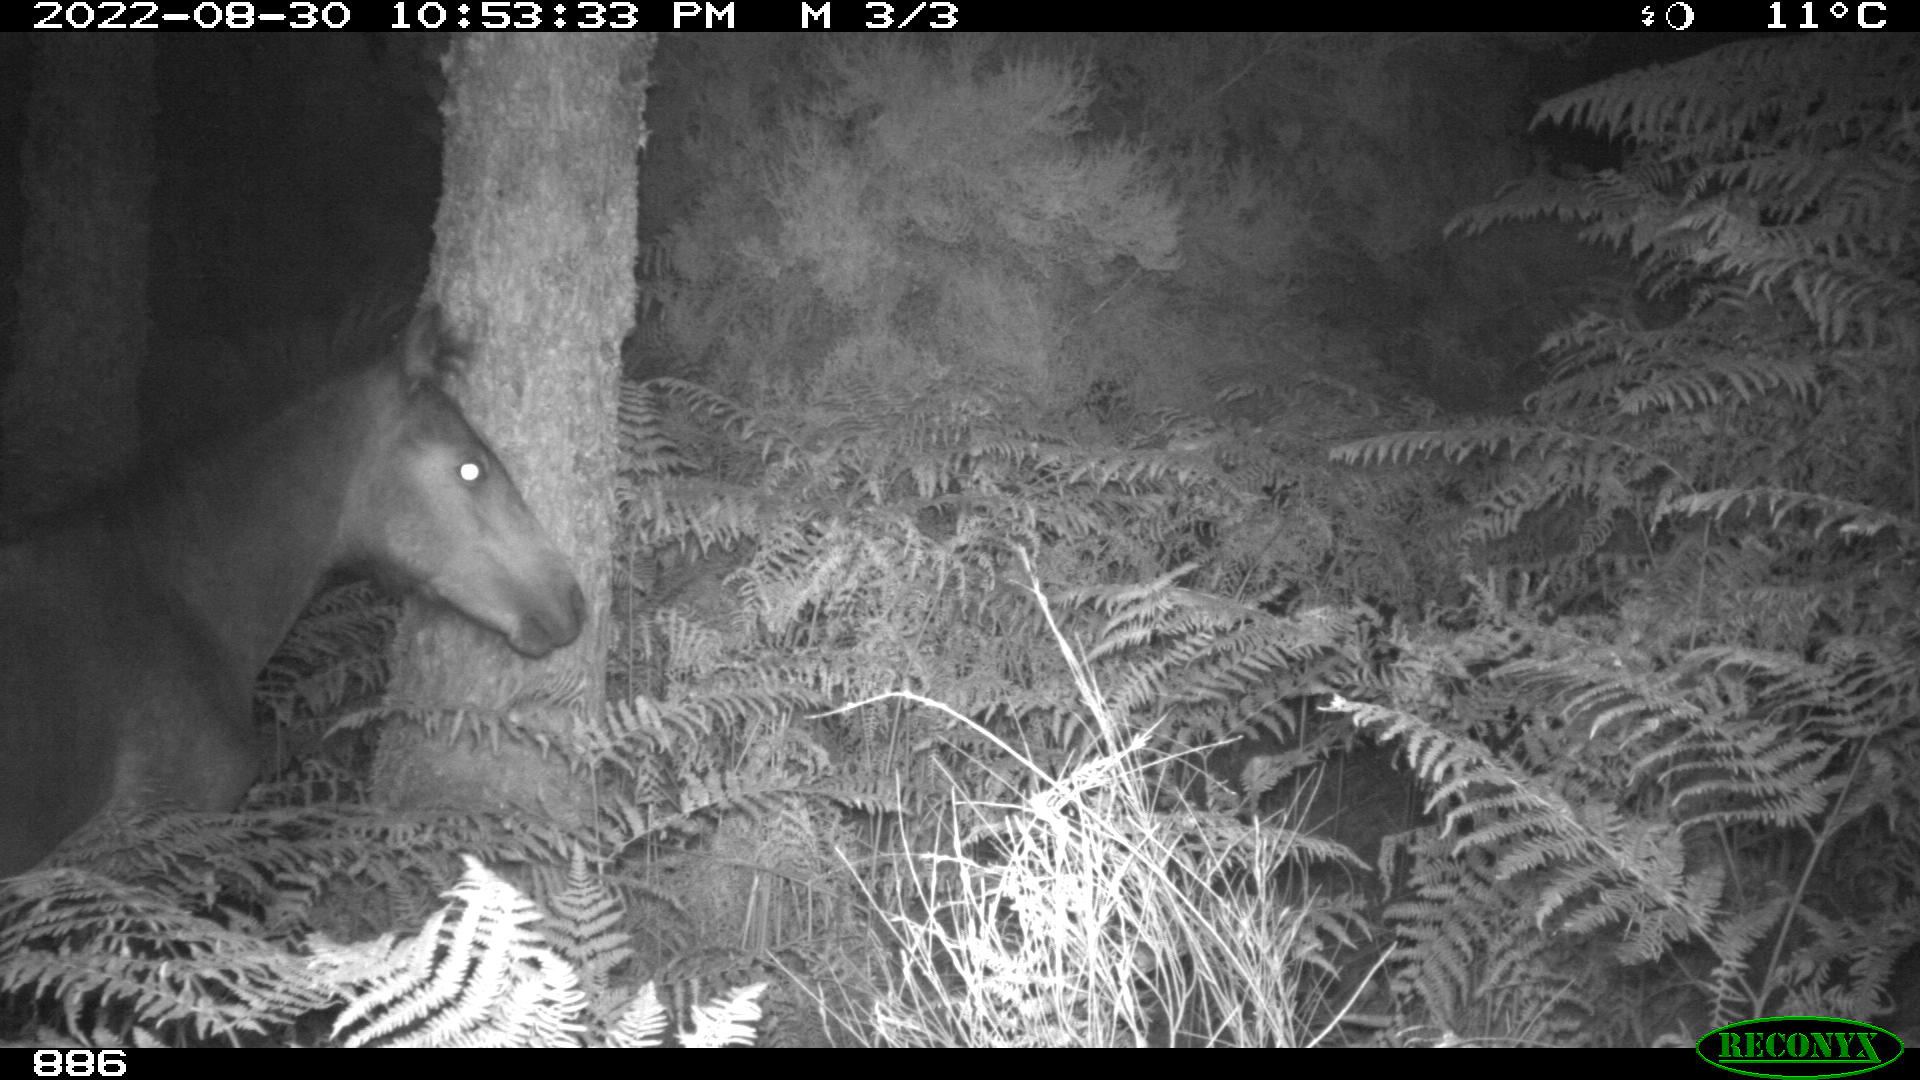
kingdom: Animalia
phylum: Chordata
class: Mammalia
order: Perissodactyla
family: Equidae
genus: Equus
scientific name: Equus caballus
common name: Horse
